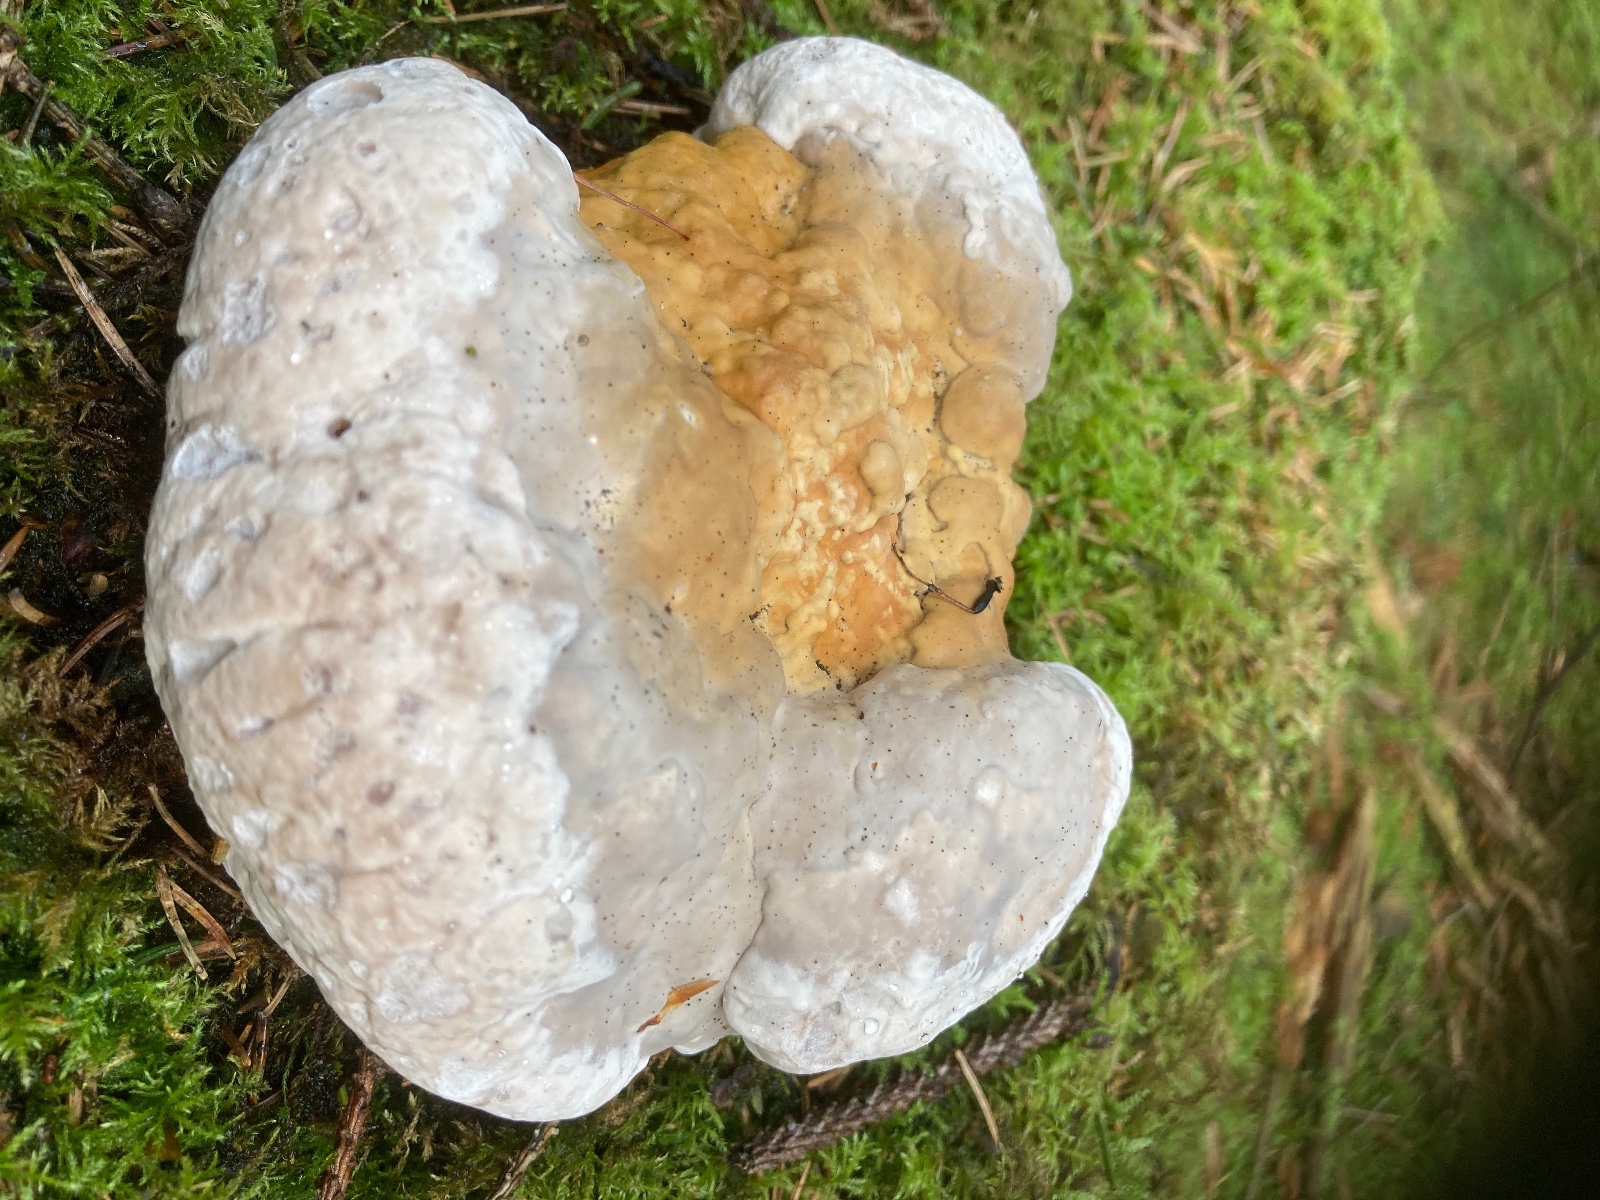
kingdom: Fungi
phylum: Basidiomycota
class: Agaricomycetes
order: Polyporales
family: Fomitopsidaceae
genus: Fomitopsis
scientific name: Fomitopsis pinicola
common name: randbæltet hovporesvamp
